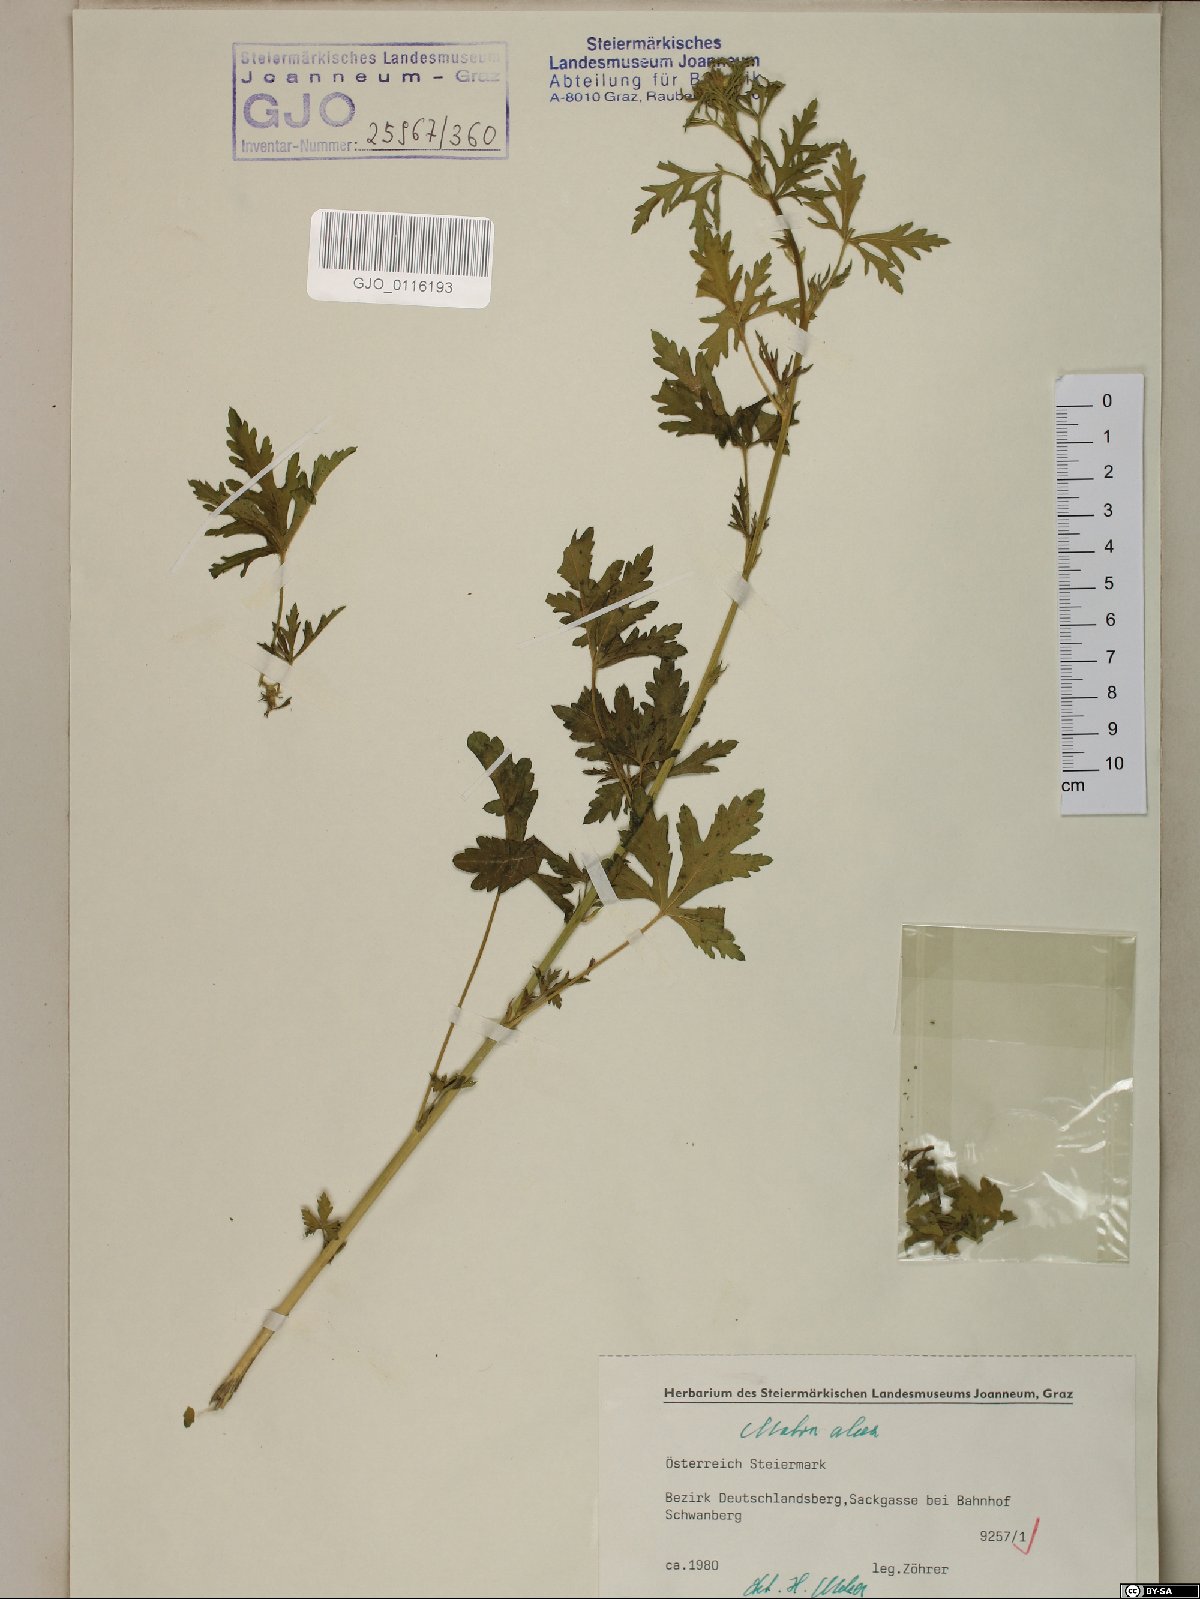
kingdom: Plantae
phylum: Tracheophyta
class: Magnoliopsida
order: Malvales
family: Malvaceae
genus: Malva
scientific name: Malva alcea
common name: Greater musk-mallow
